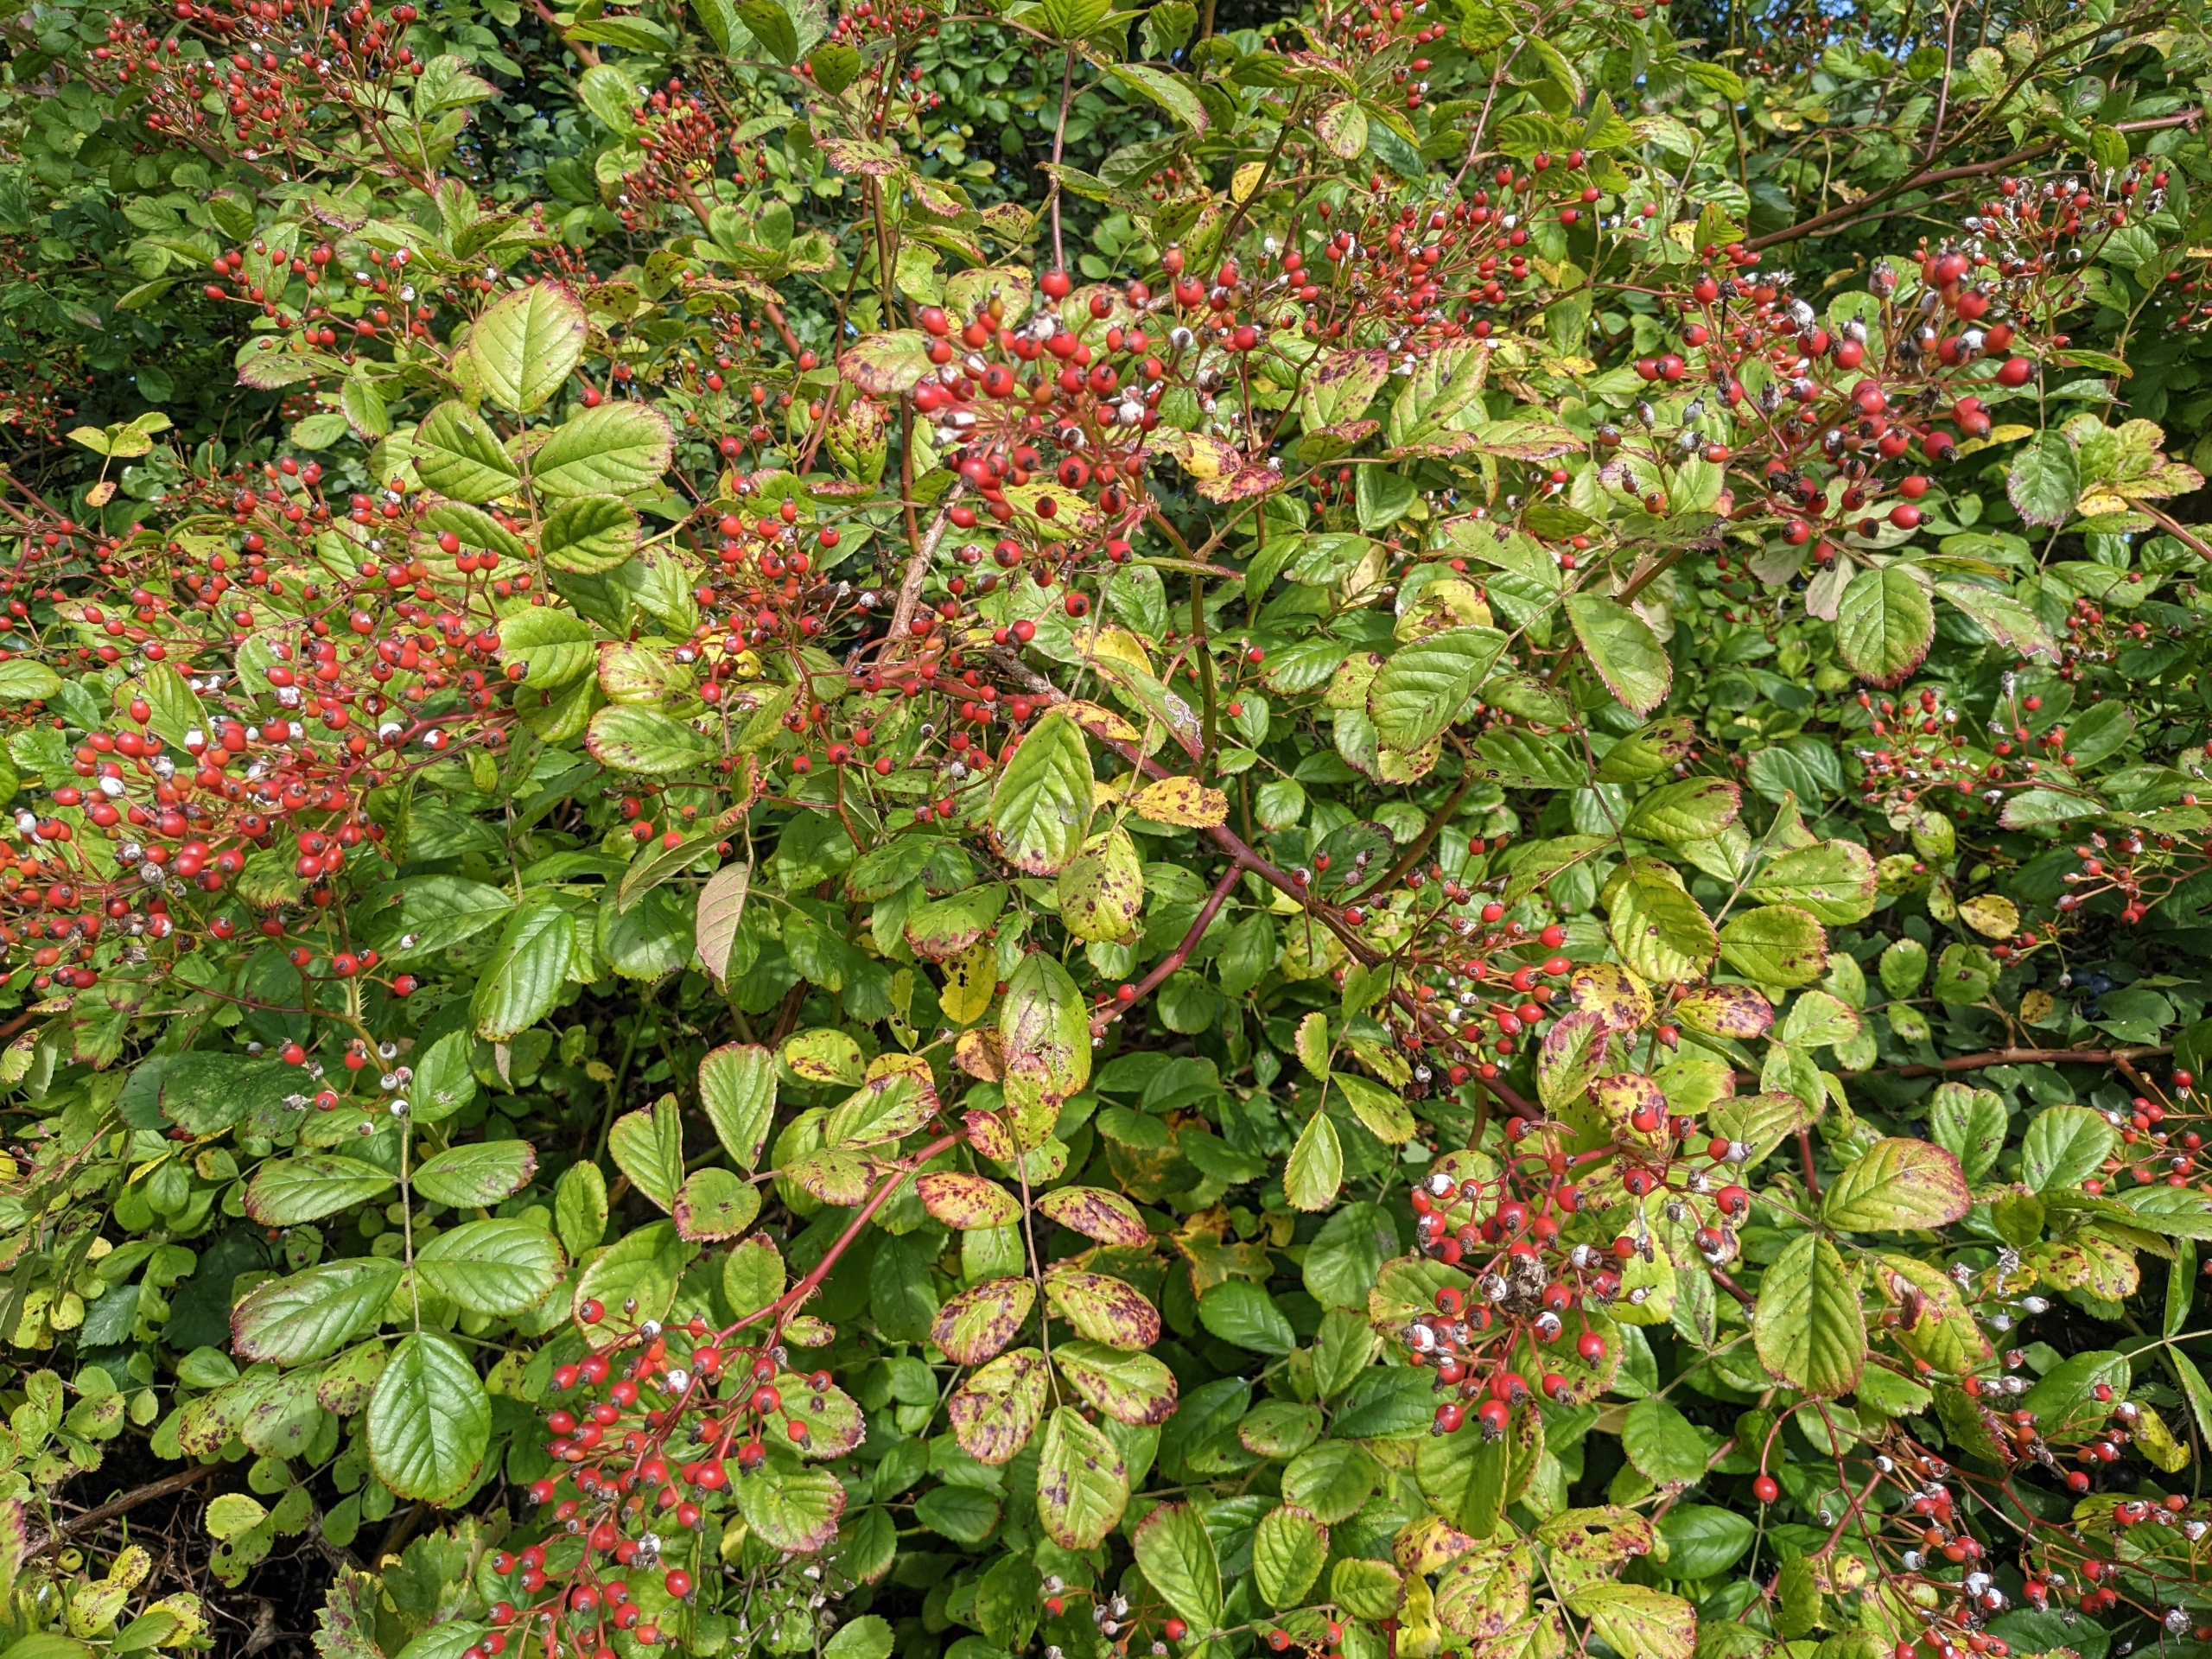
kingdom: Plantae
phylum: Tracheophyta
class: Magnoliopsida
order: Rosales
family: Rosaceae
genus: Rosa
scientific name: Rosa multiflora
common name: Mangeblomstret rose
